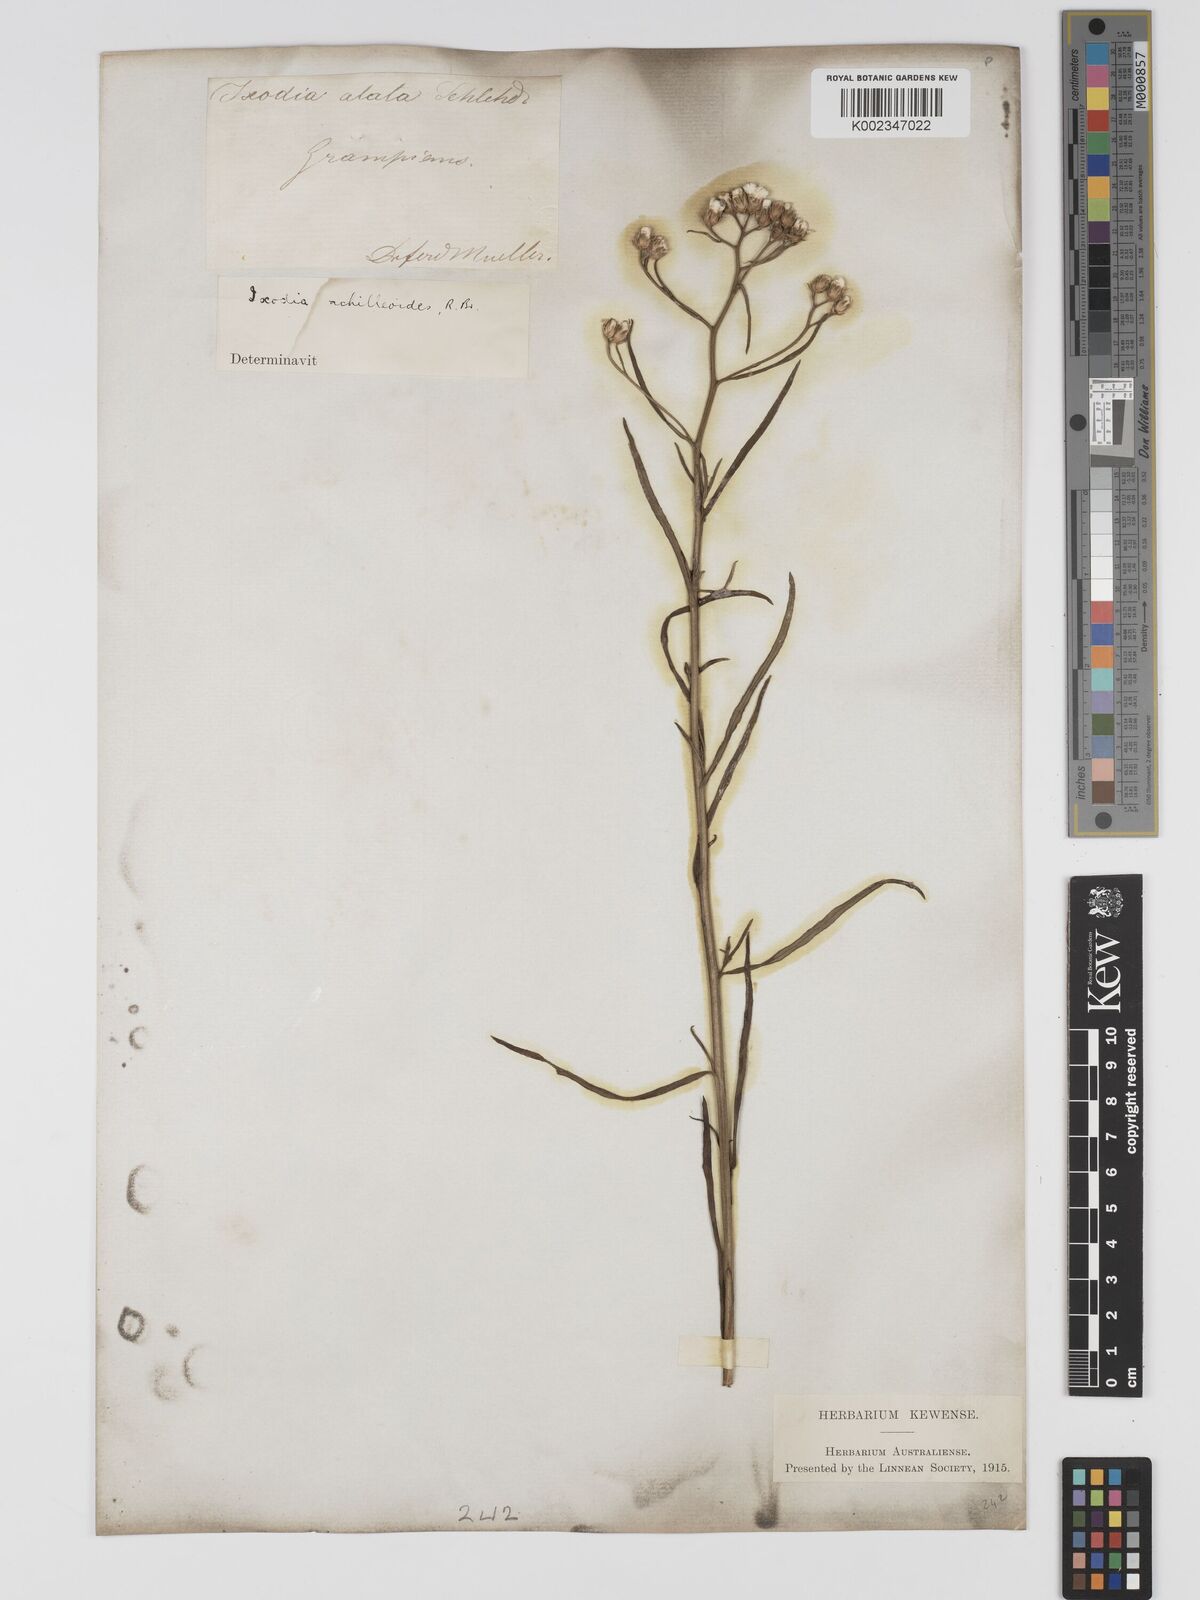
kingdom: Plantae
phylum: Tracheophyta
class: Magnoliopsida
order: Asterales
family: Asteraceae
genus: Ixodia
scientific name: Ixodia achilleoides
